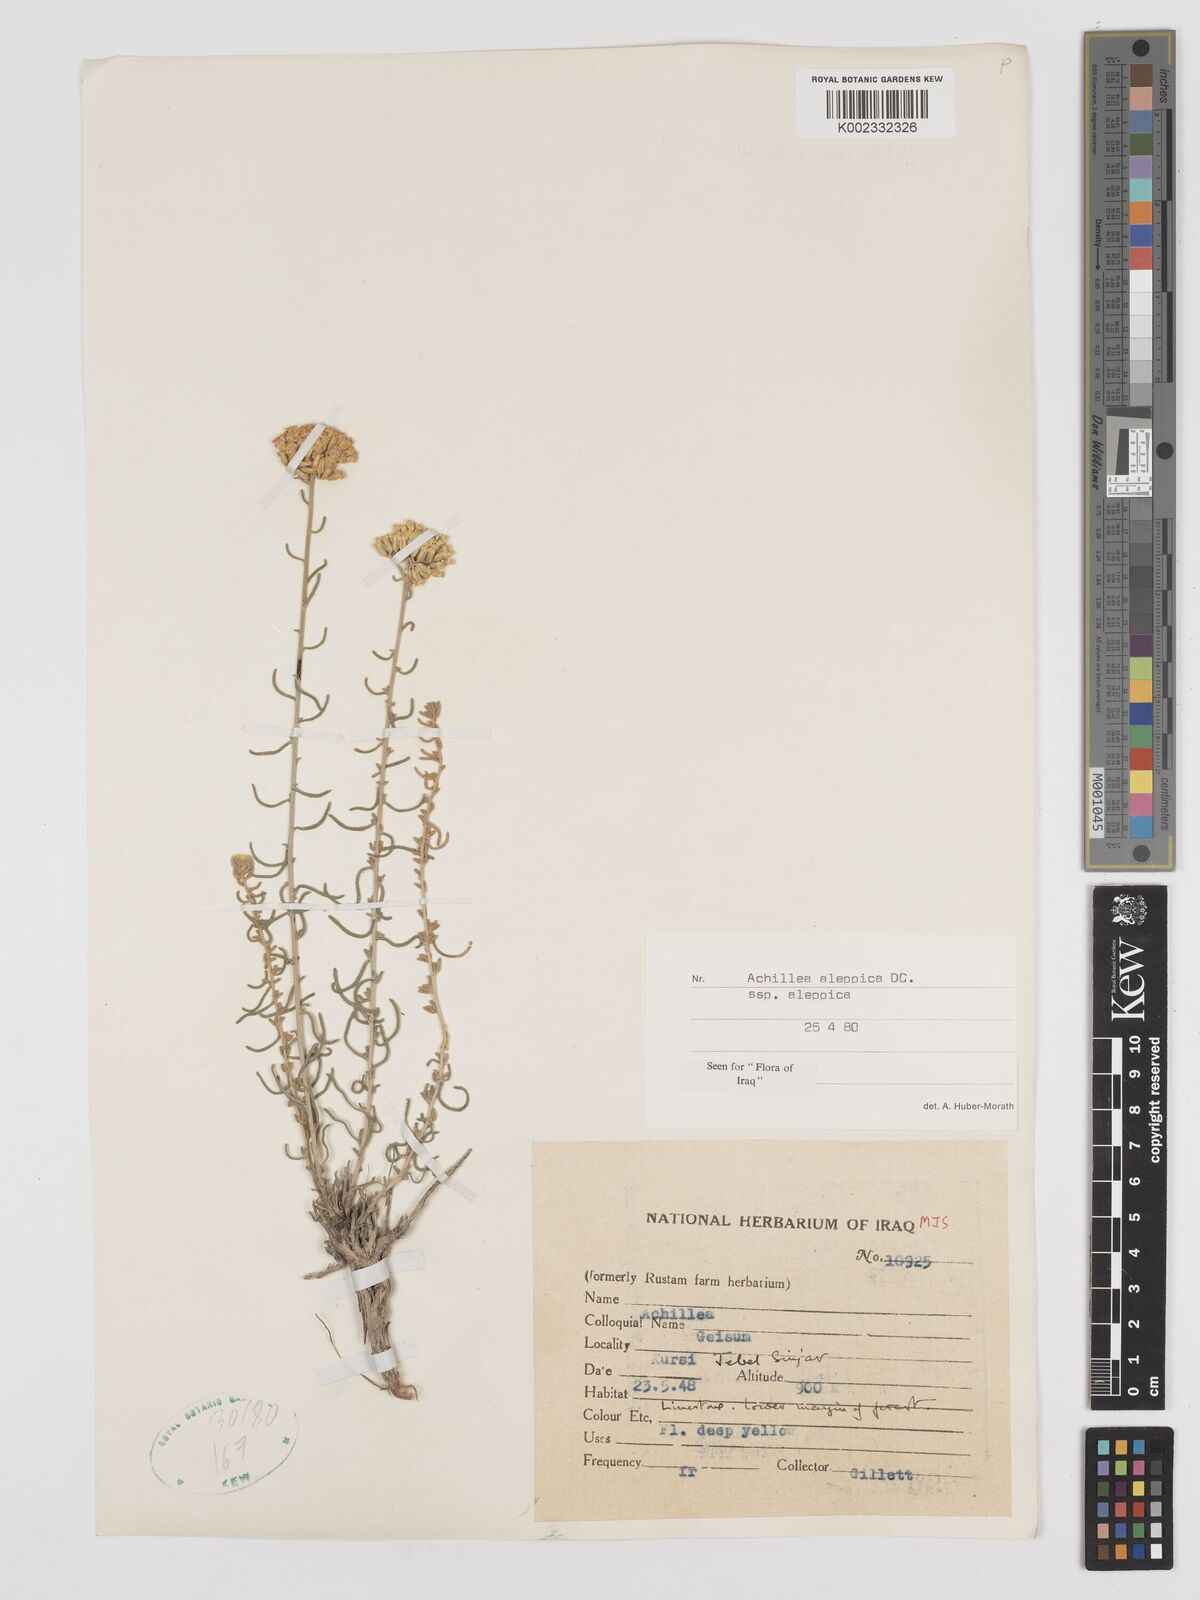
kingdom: Plantae
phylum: Tracheophyta
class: Magnoliopsida
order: Asterales
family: Asteraceae
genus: Achillea
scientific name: Achillea aleppica
